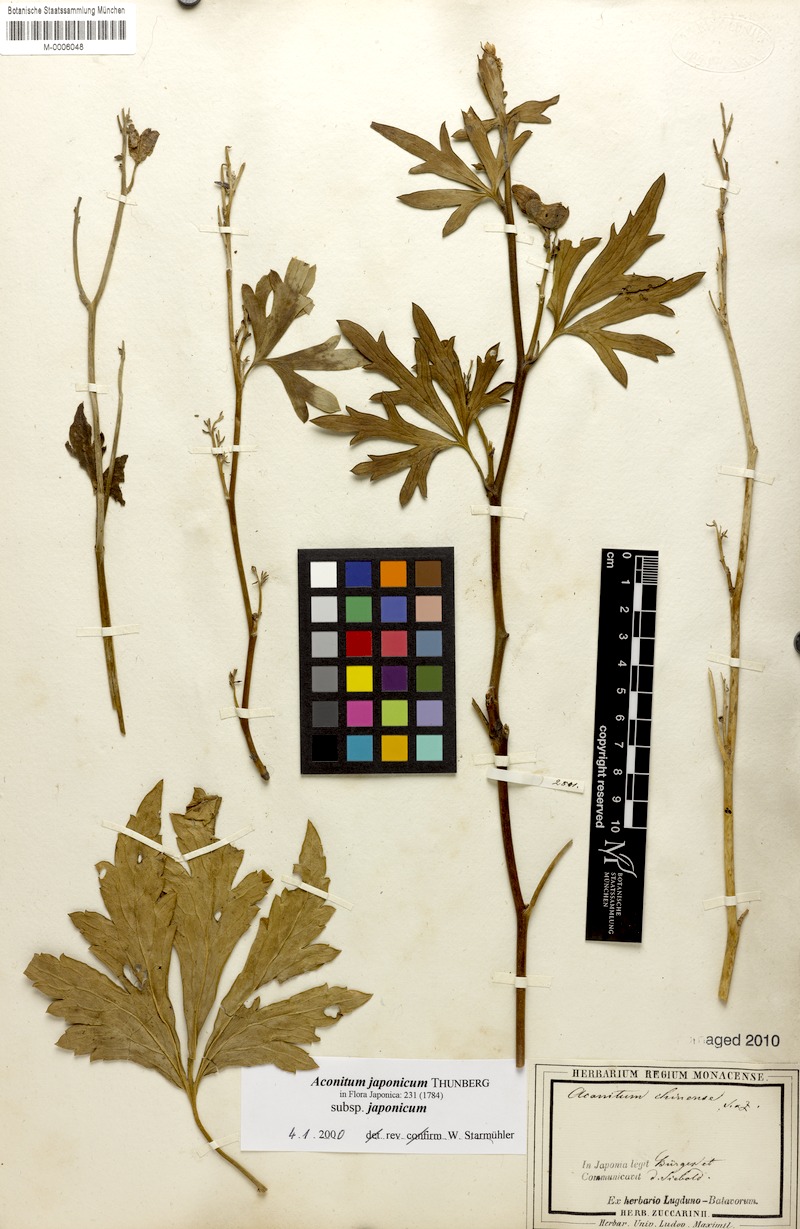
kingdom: Plantae
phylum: Tracheophyta
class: Magnoliopsida
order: Ranunculales
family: Ranunculaceae
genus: Aconitum
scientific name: Aconitum fischeri
